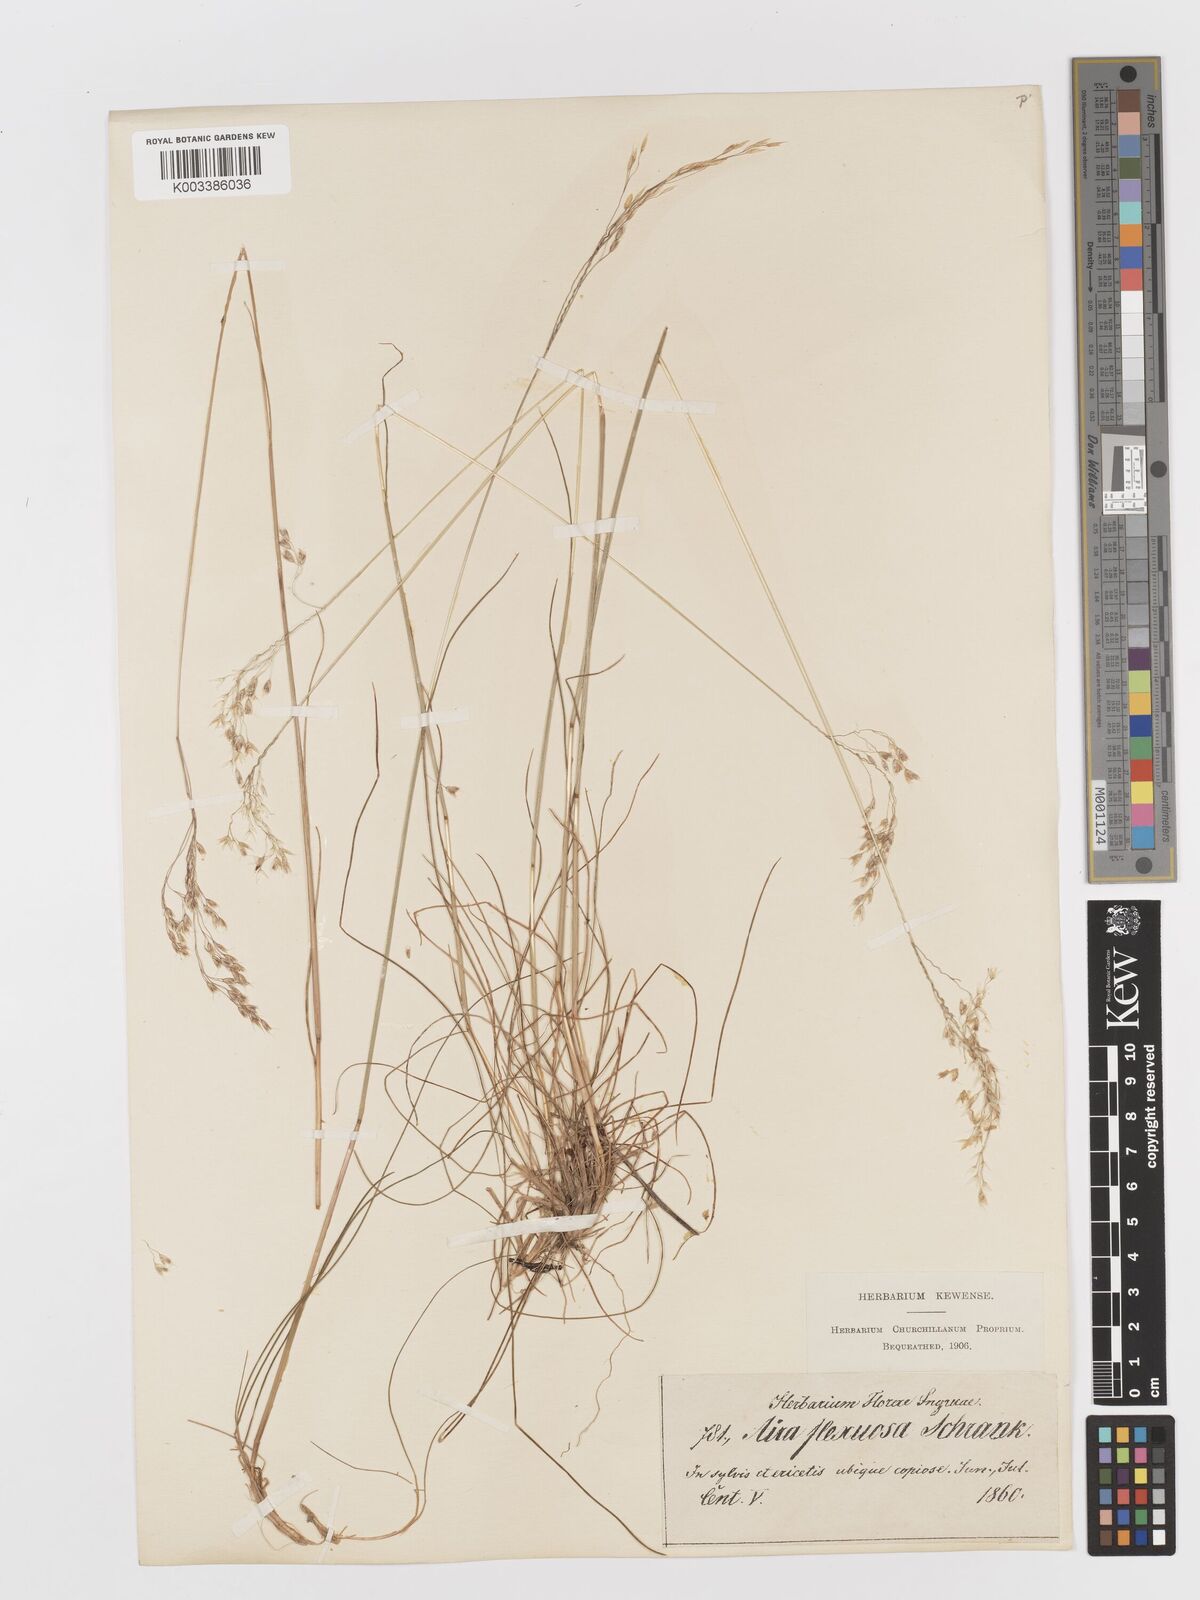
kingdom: Plantae
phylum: Tracheophyta
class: Liliopsida
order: Poales
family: Poaceae
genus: Avenella
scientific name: Avenella flexuosa
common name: Wavy hairgrass
